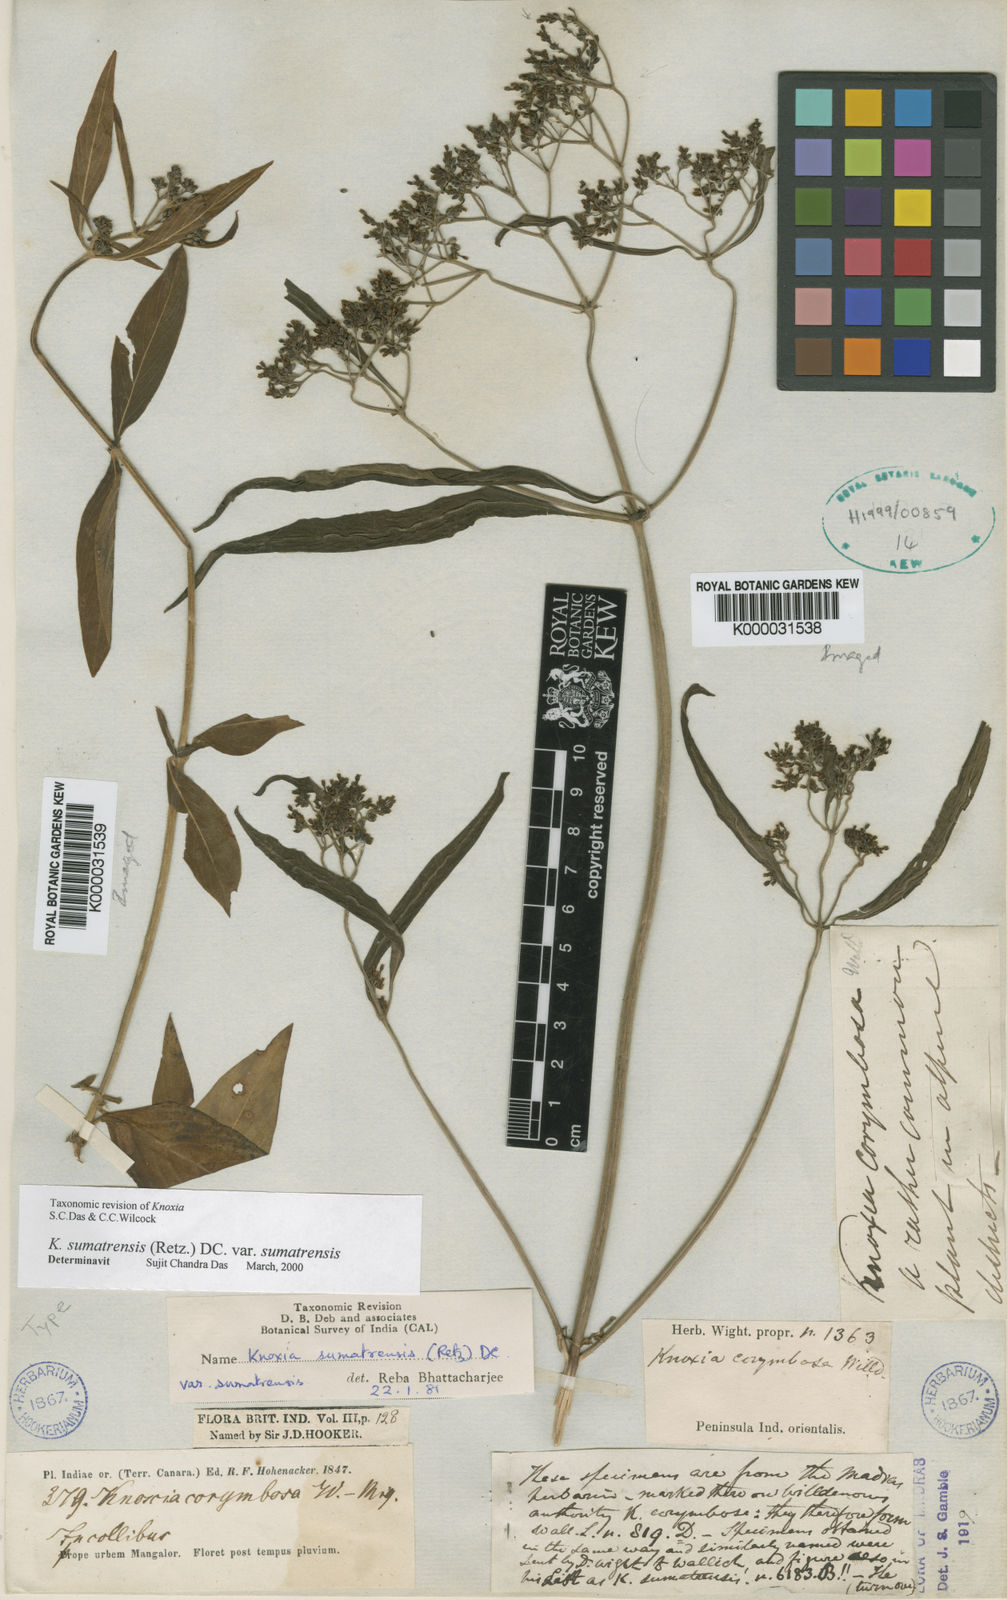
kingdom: Plantae
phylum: Tracheophyta
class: Magnoliopsida
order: Gentianales
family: Rubiaceae
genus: Knoxia
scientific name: Knoxia sumatrensis
